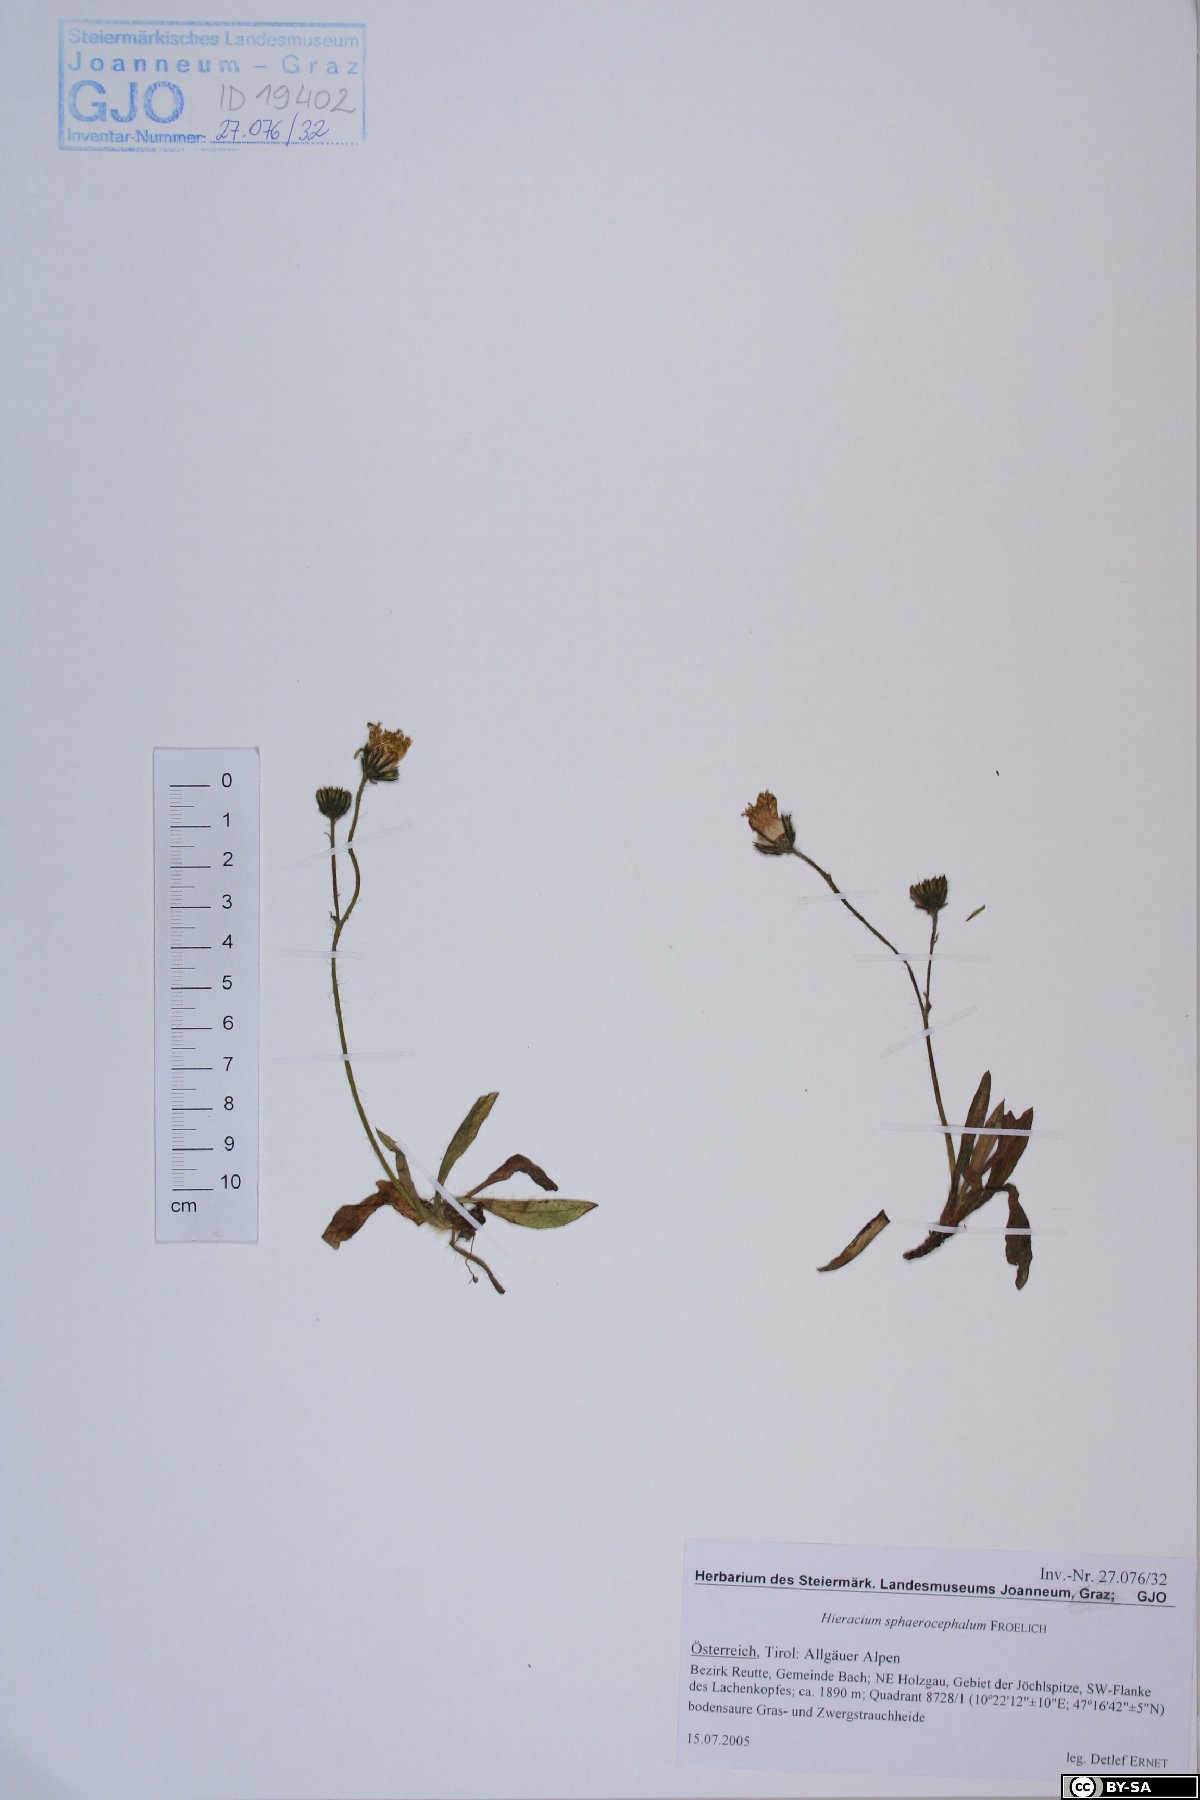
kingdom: Plantae
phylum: Tracheophyta
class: Magnoliopsida
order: Asterales
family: Asteraceae
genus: Pilosella
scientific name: Pilosella sphaerocephala
